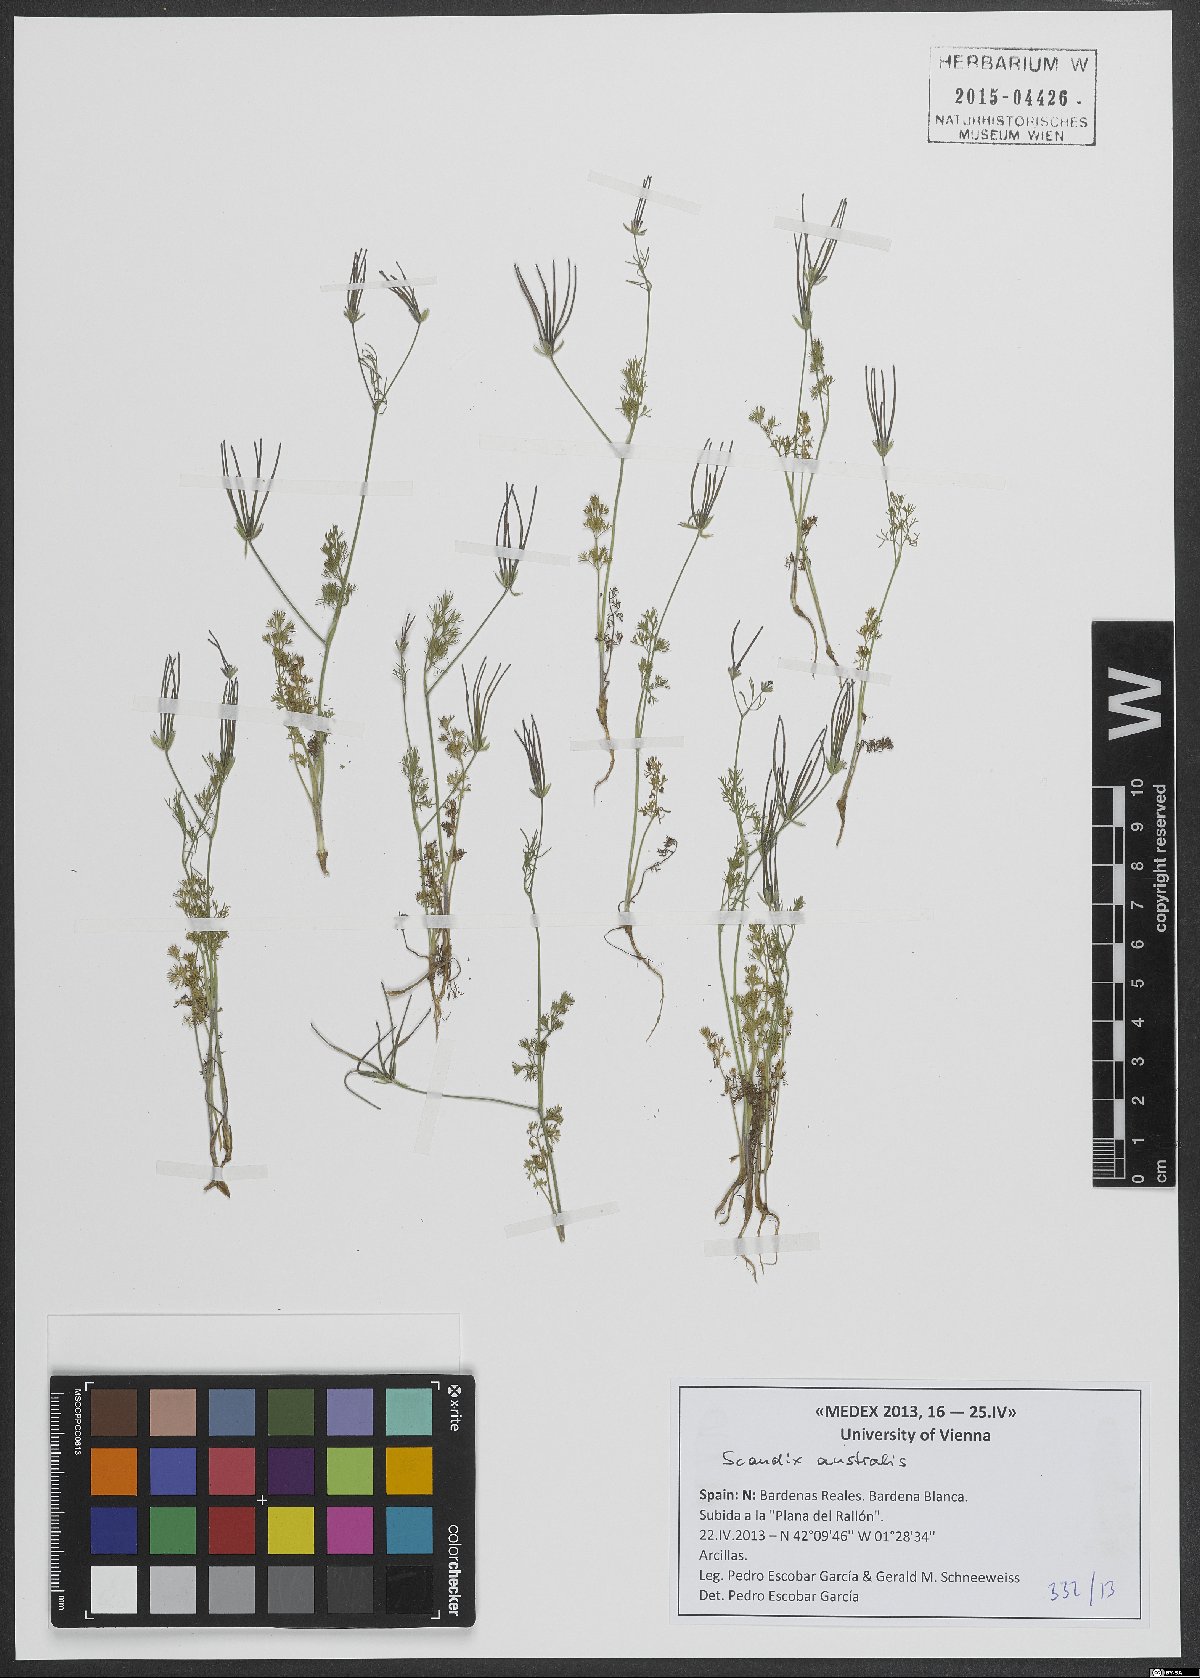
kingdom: Plantae
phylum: Tracheophyta
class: Magnoliopsida
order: Apiales
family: Apiaceae
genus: Scandix
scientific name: Scandix australis
